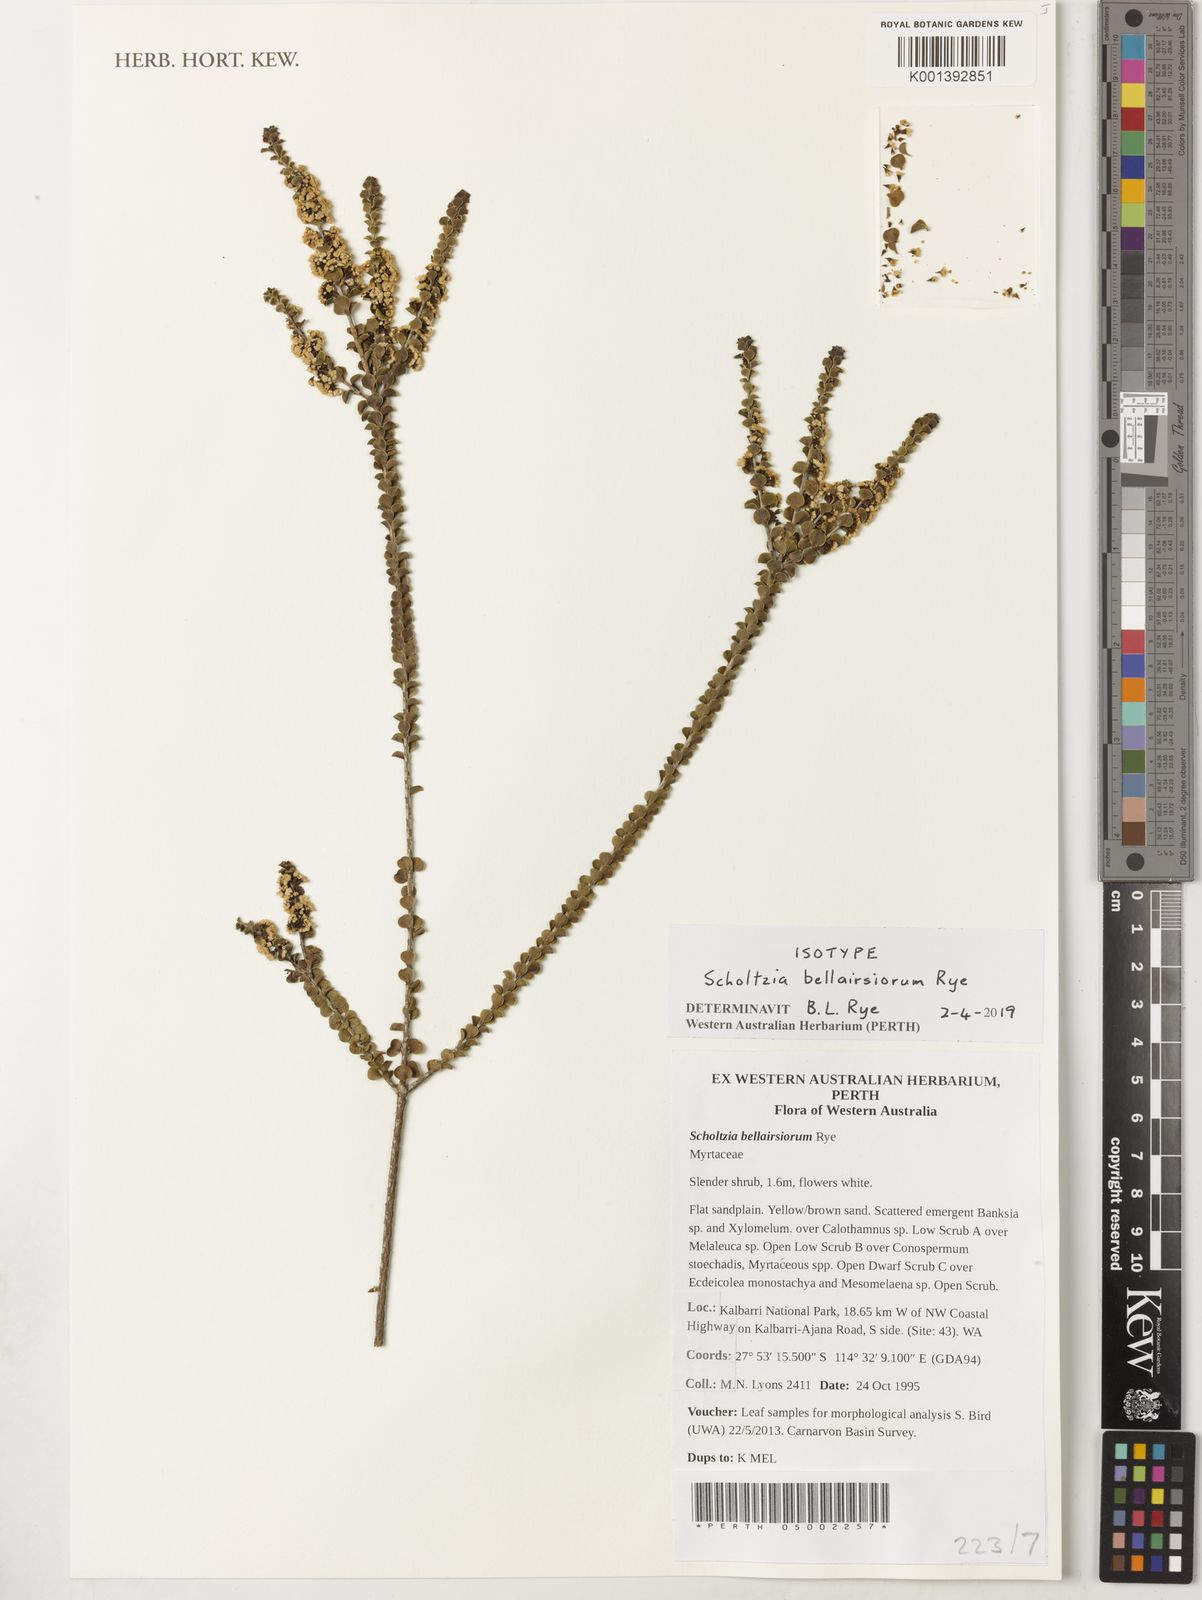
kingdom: Plantae
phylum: Tracheophyta
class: Magnoliopsida
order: Myrtales
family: Myrtaceae
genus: Scholtzia
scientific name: Scholtzia
